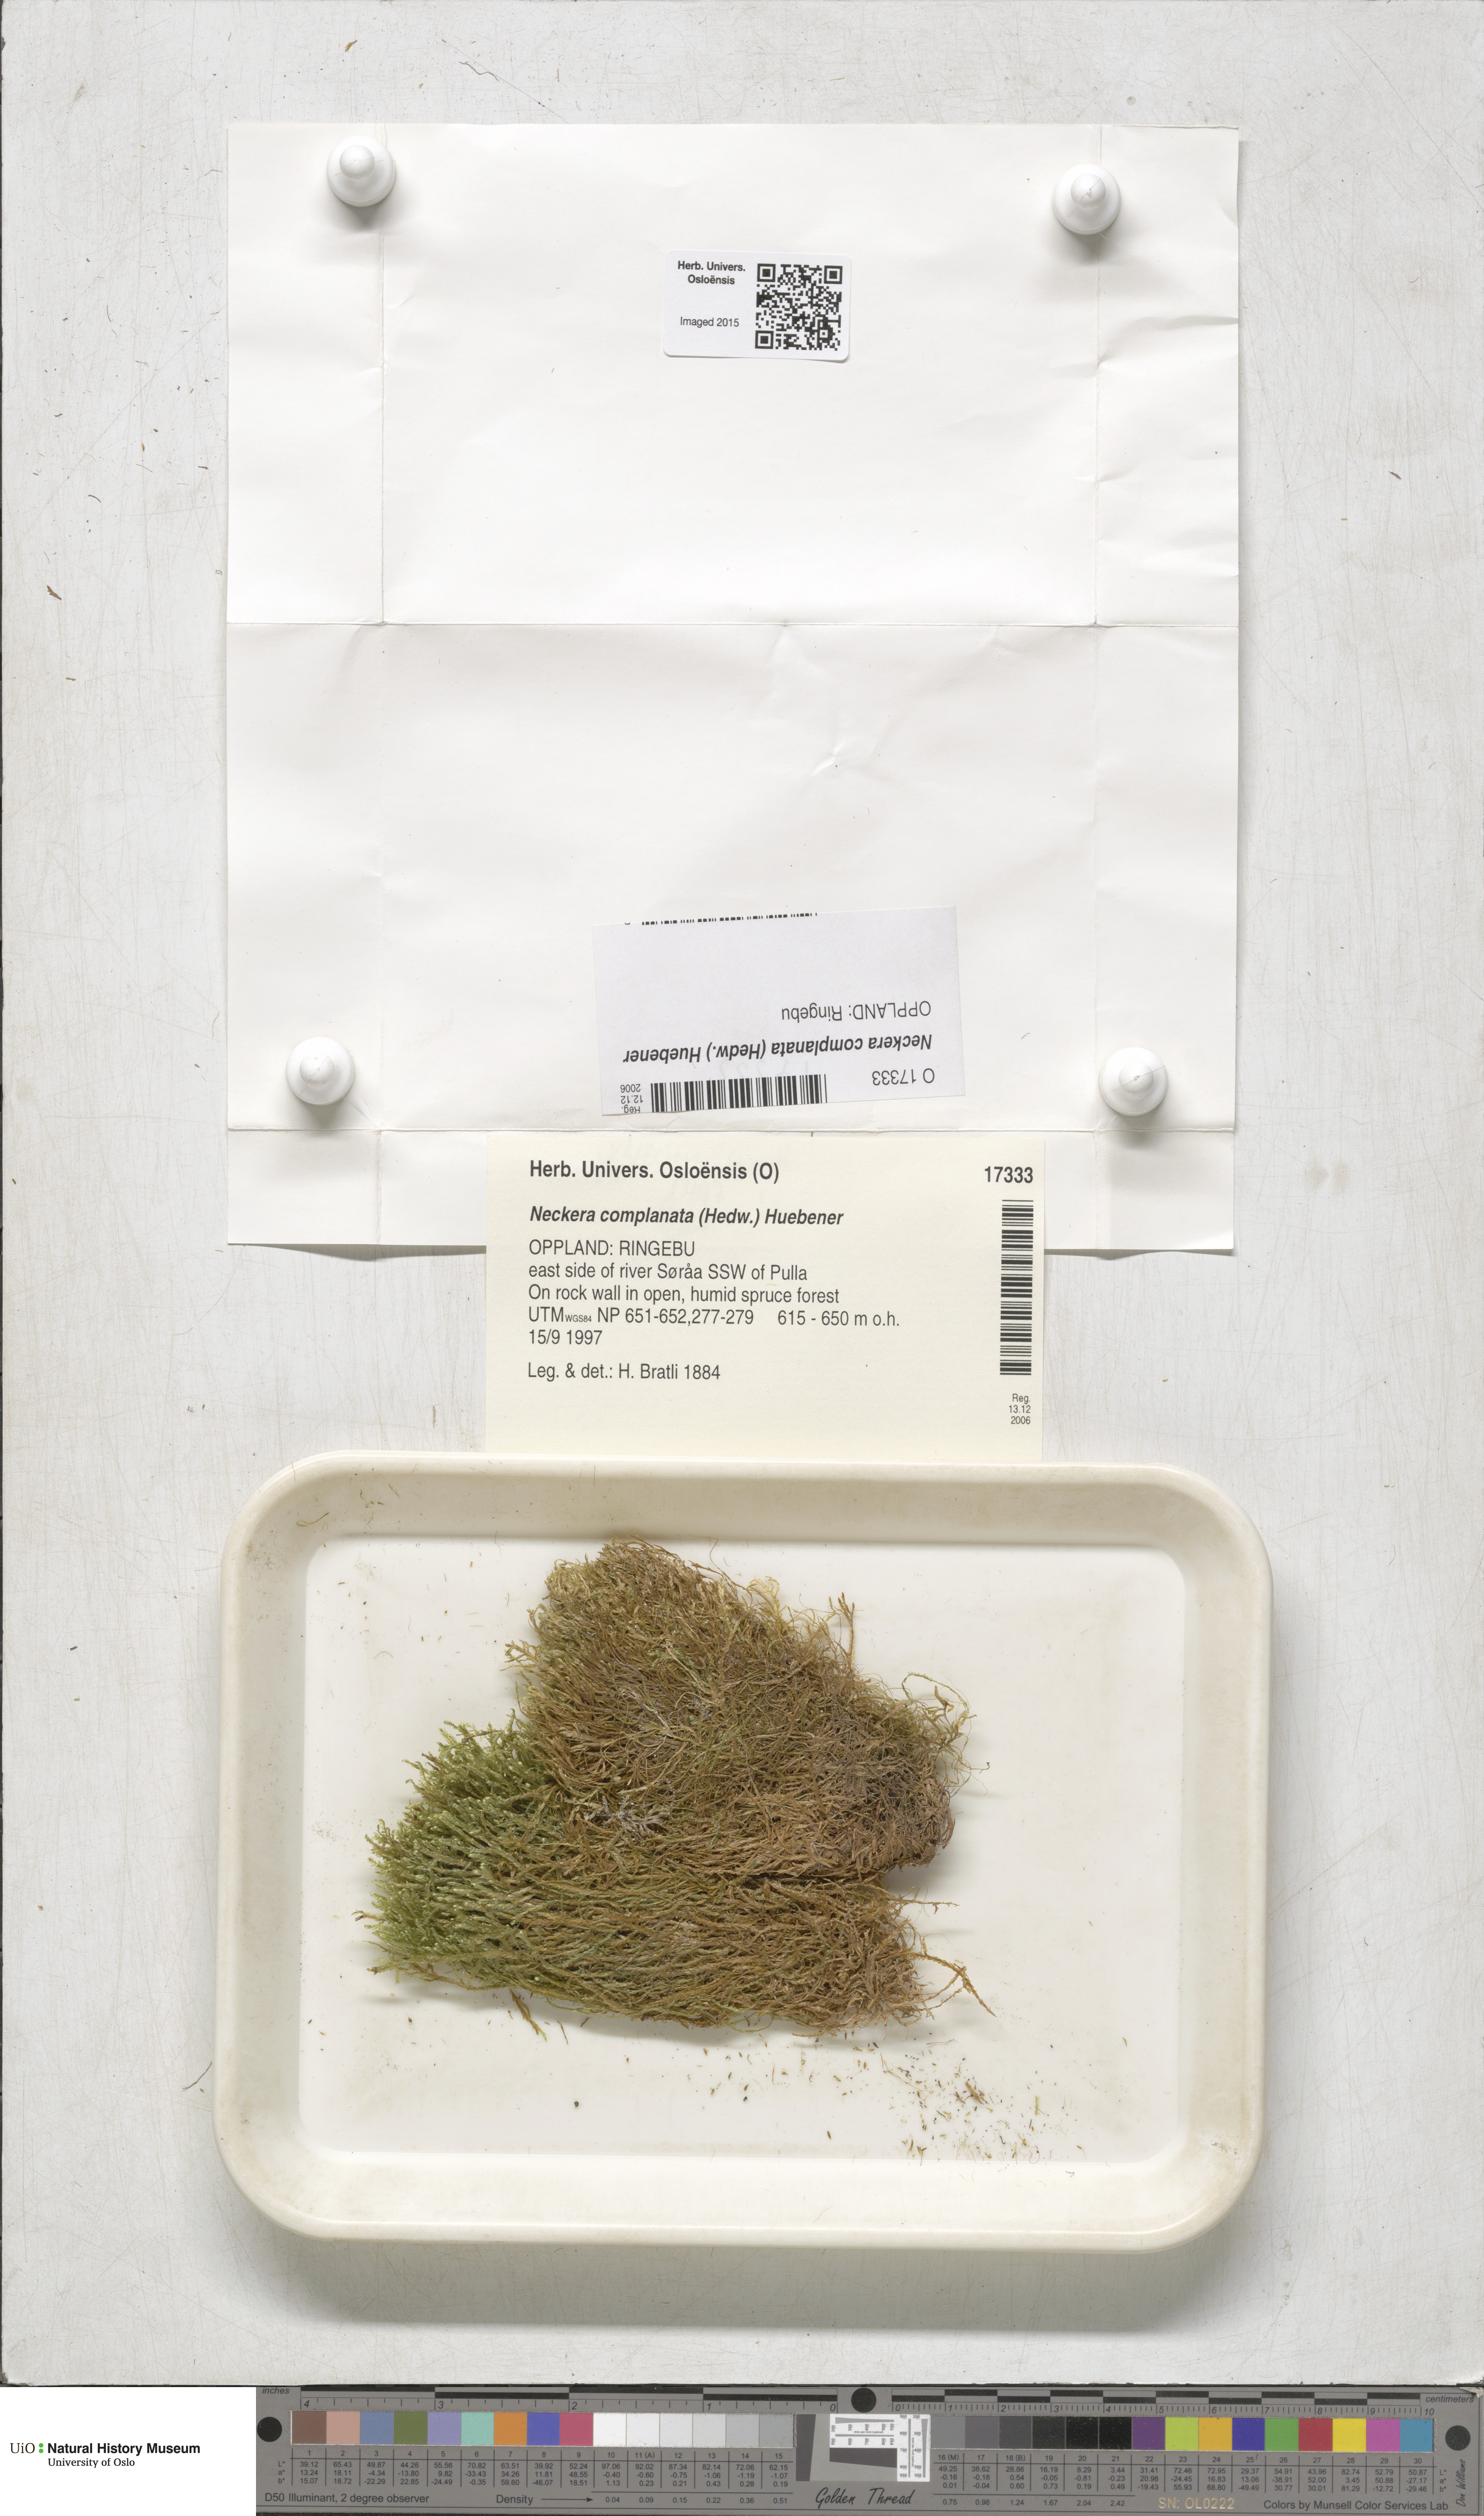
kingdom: Plantae
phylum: Bryophyta
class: Bryopsida
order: Pottiales
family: Pottiaceae
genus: Tortella
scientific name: Tortella tortuosa
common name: Frizzled crisp moss
